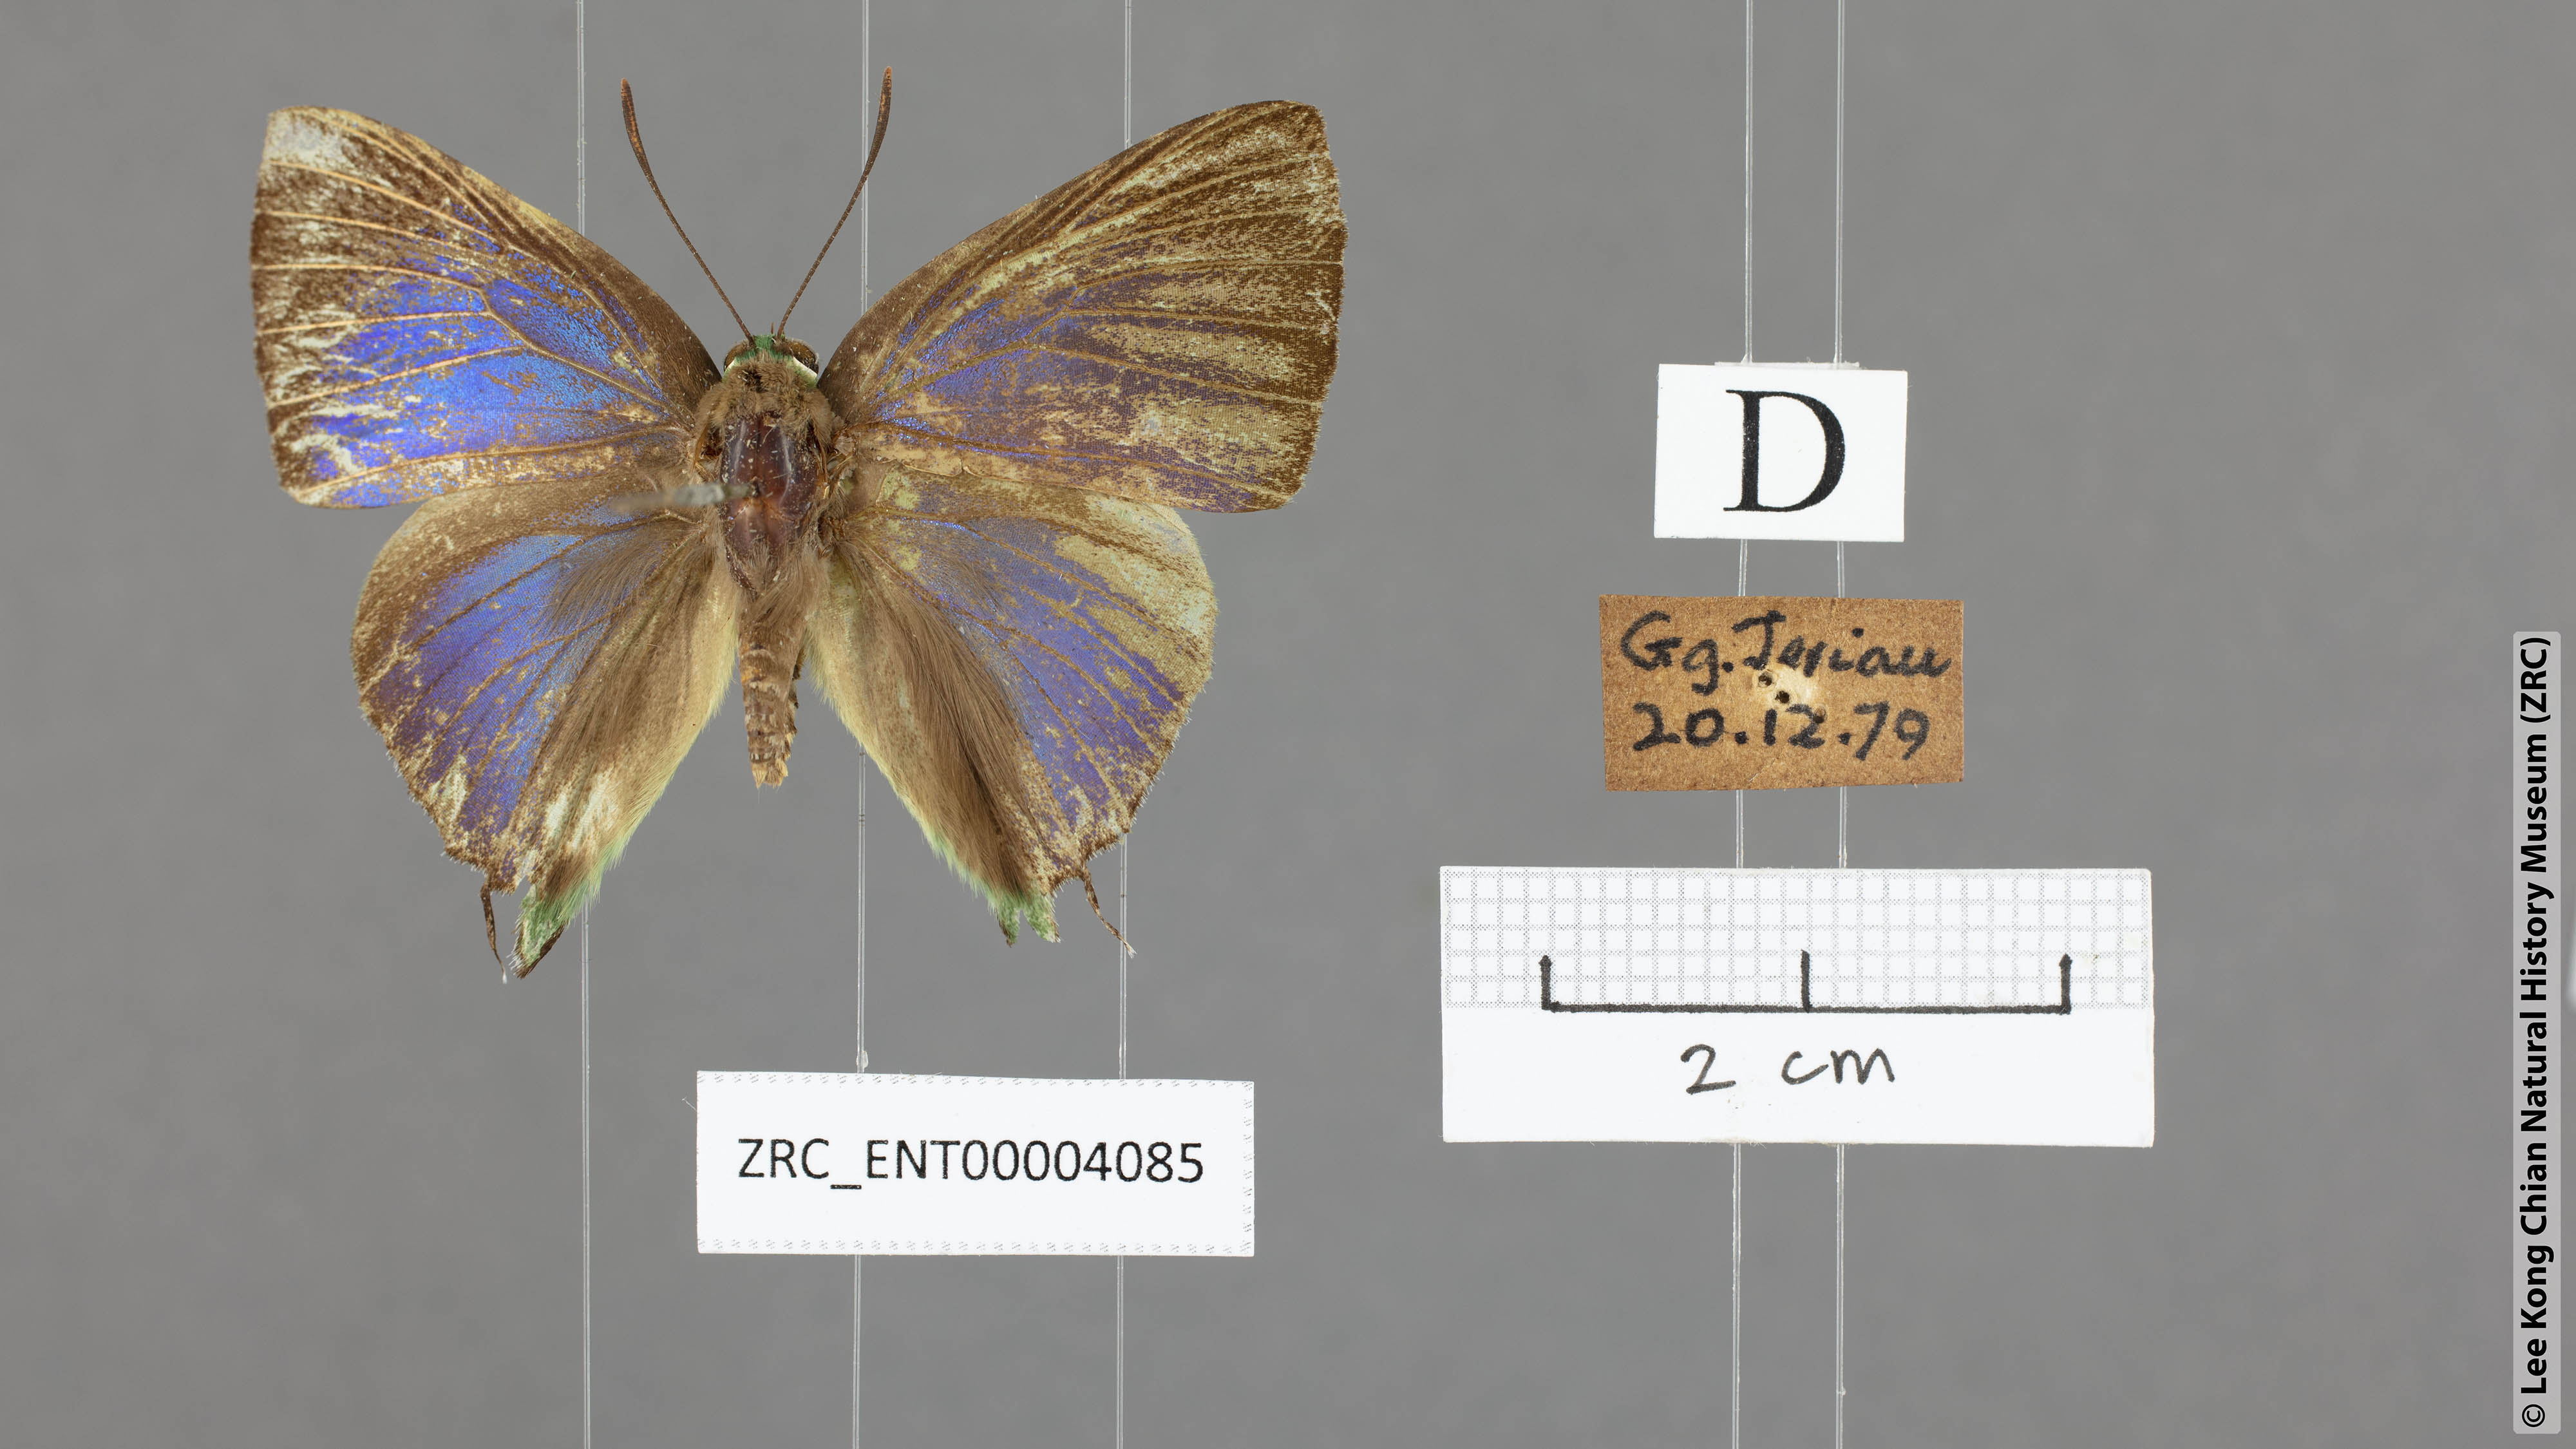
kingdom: Animalia
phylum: Arthropoda
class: Insecta
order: Lepidoptera
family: Lycaenidae
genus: Artipe
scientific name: Artipe eryx
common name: Green flash
